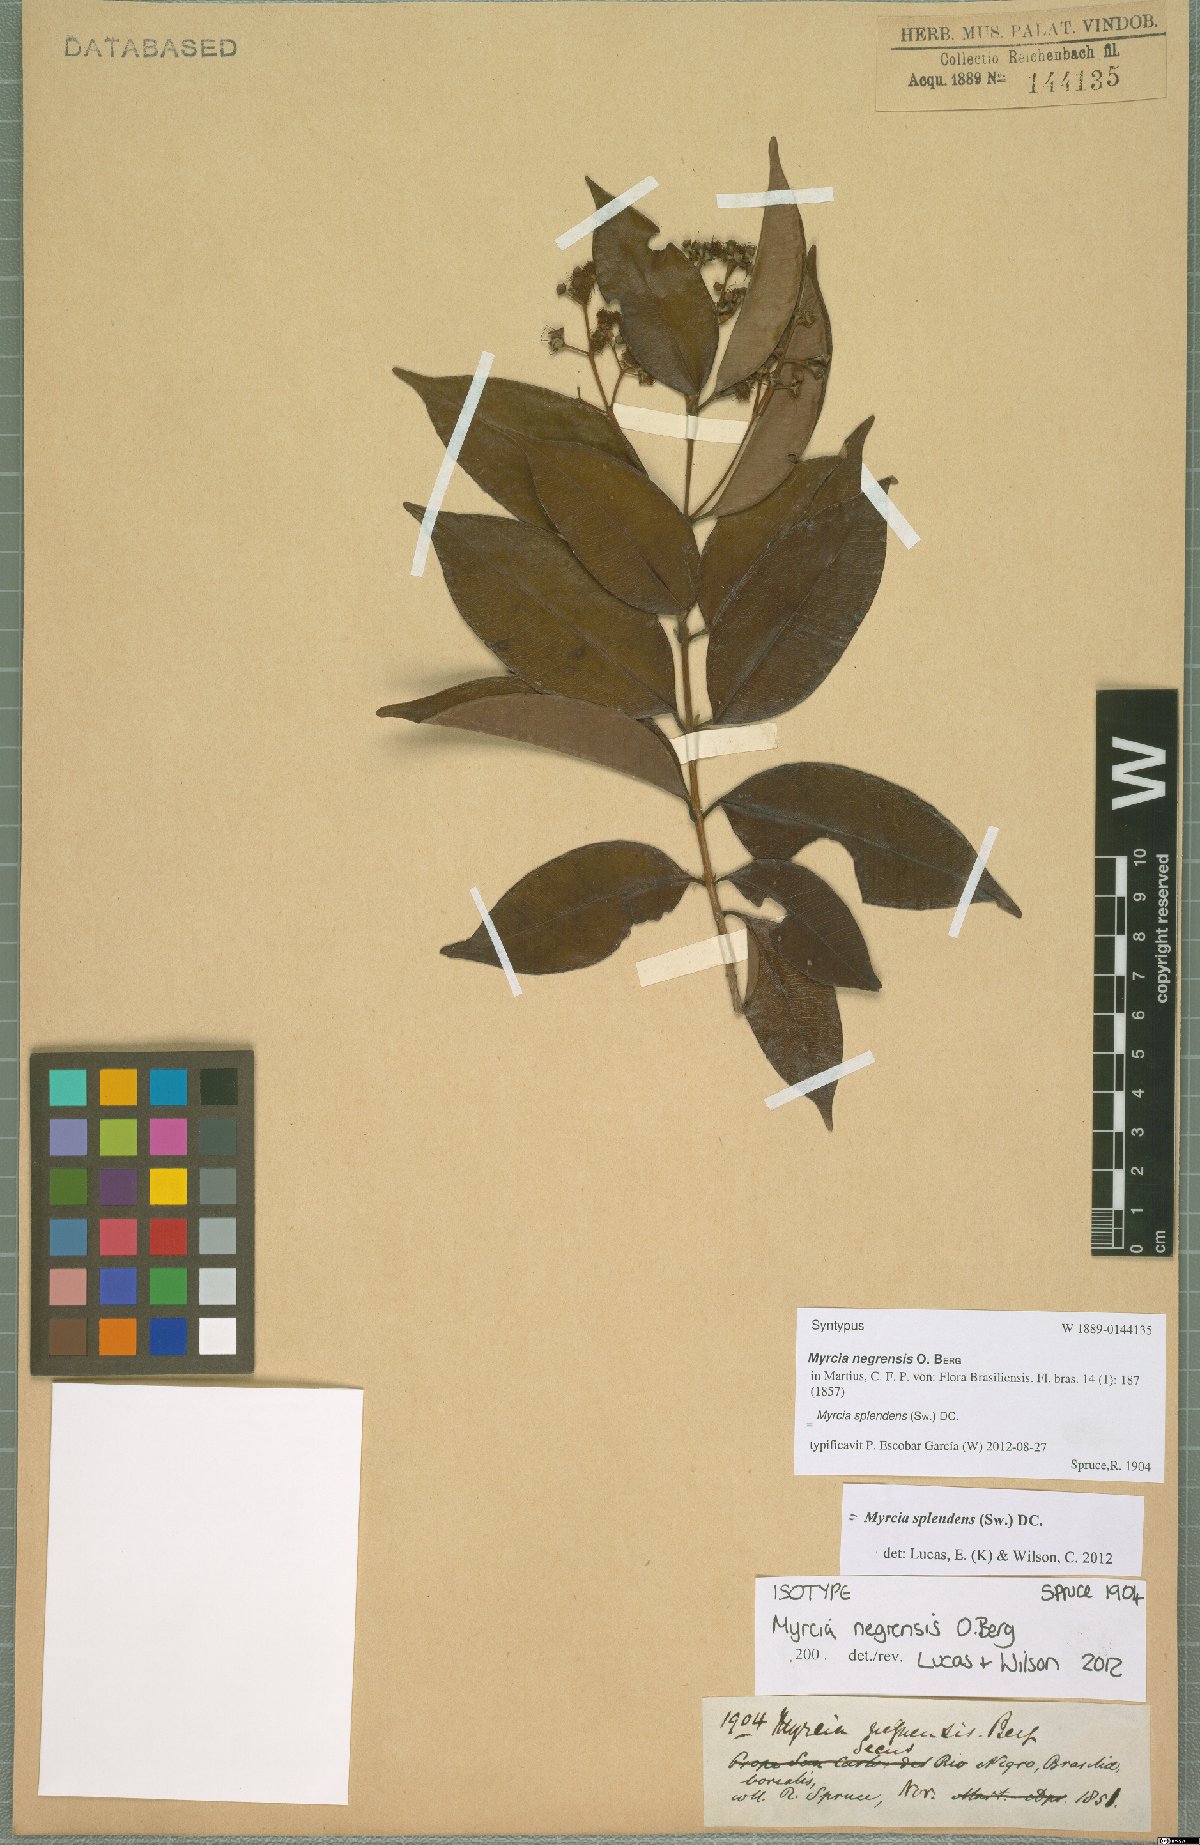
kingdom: Plantae
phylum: Tracheophyta
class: Magnoliopsida
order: Myrtales
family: Myrtaceae
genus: Myrcia
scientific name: Myrcia splendens
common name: Surinam cherry
